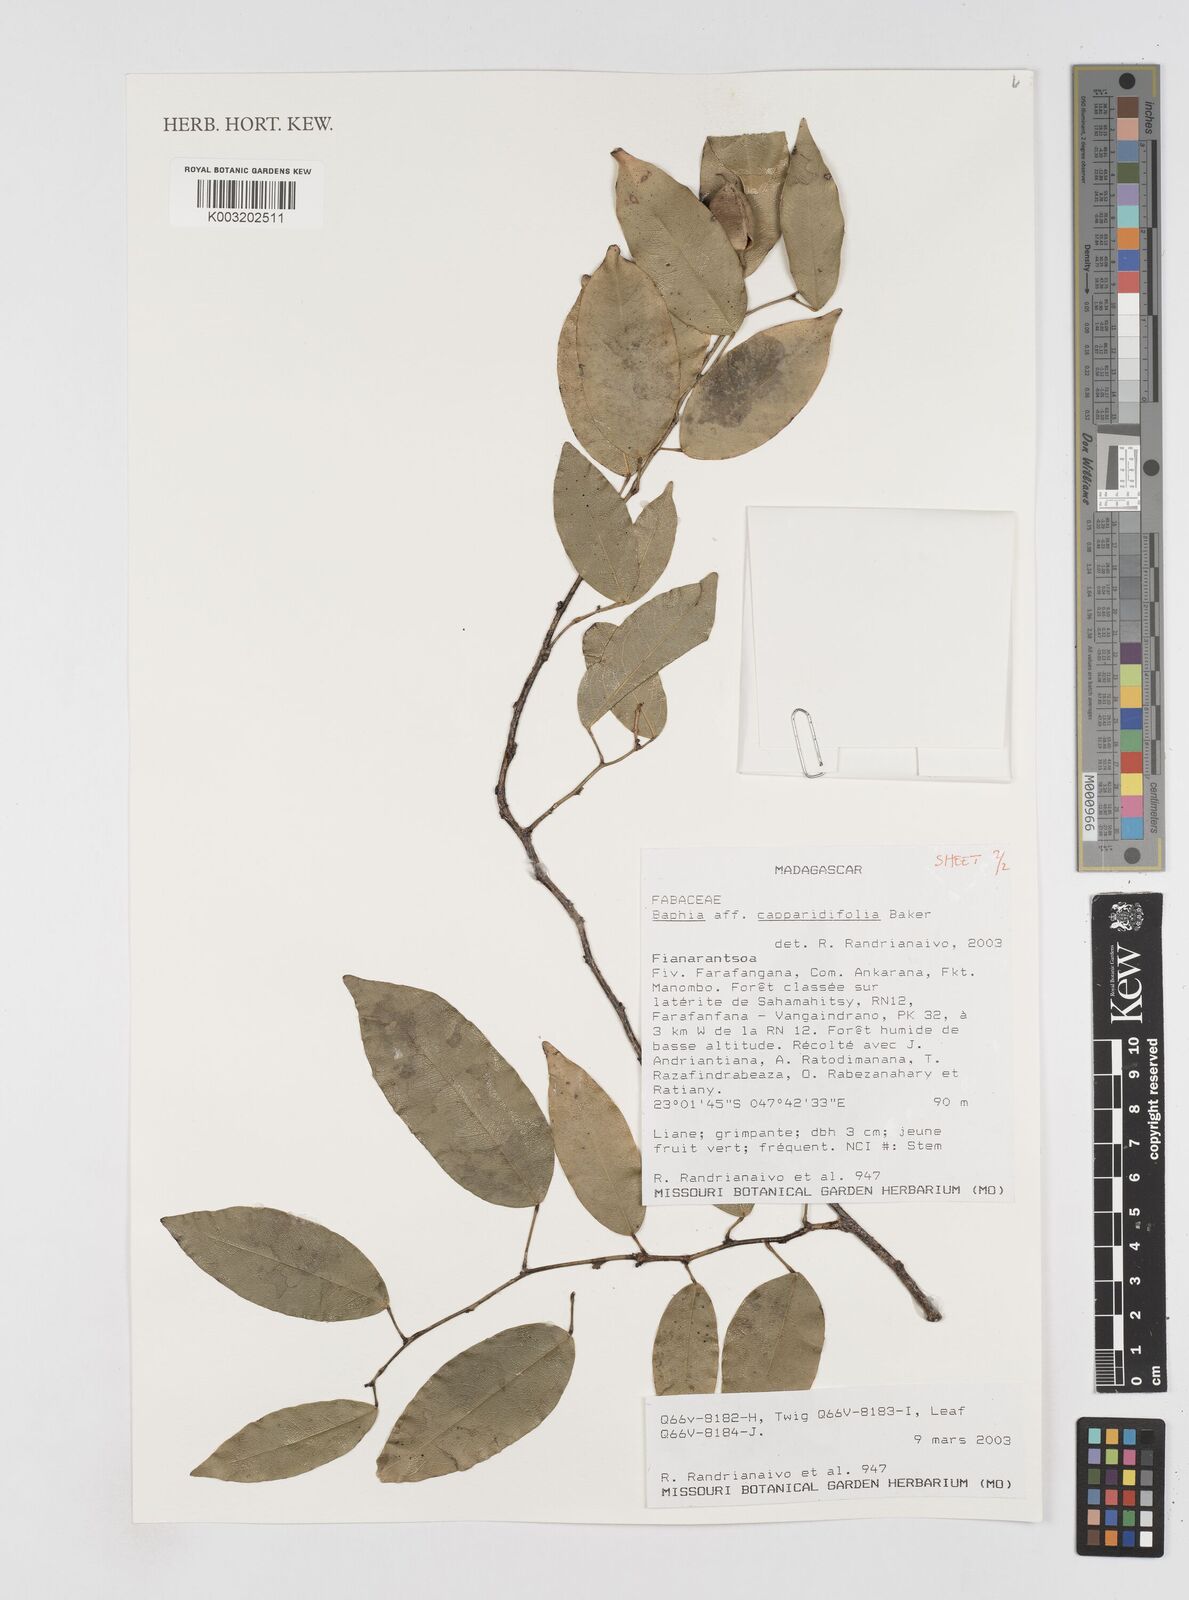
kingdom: Plantae
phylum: Tracheophyta
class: Magnoliopsida
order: Fabales
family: Fabaceae
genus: Baphia
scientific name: Baphia capparidifolia
